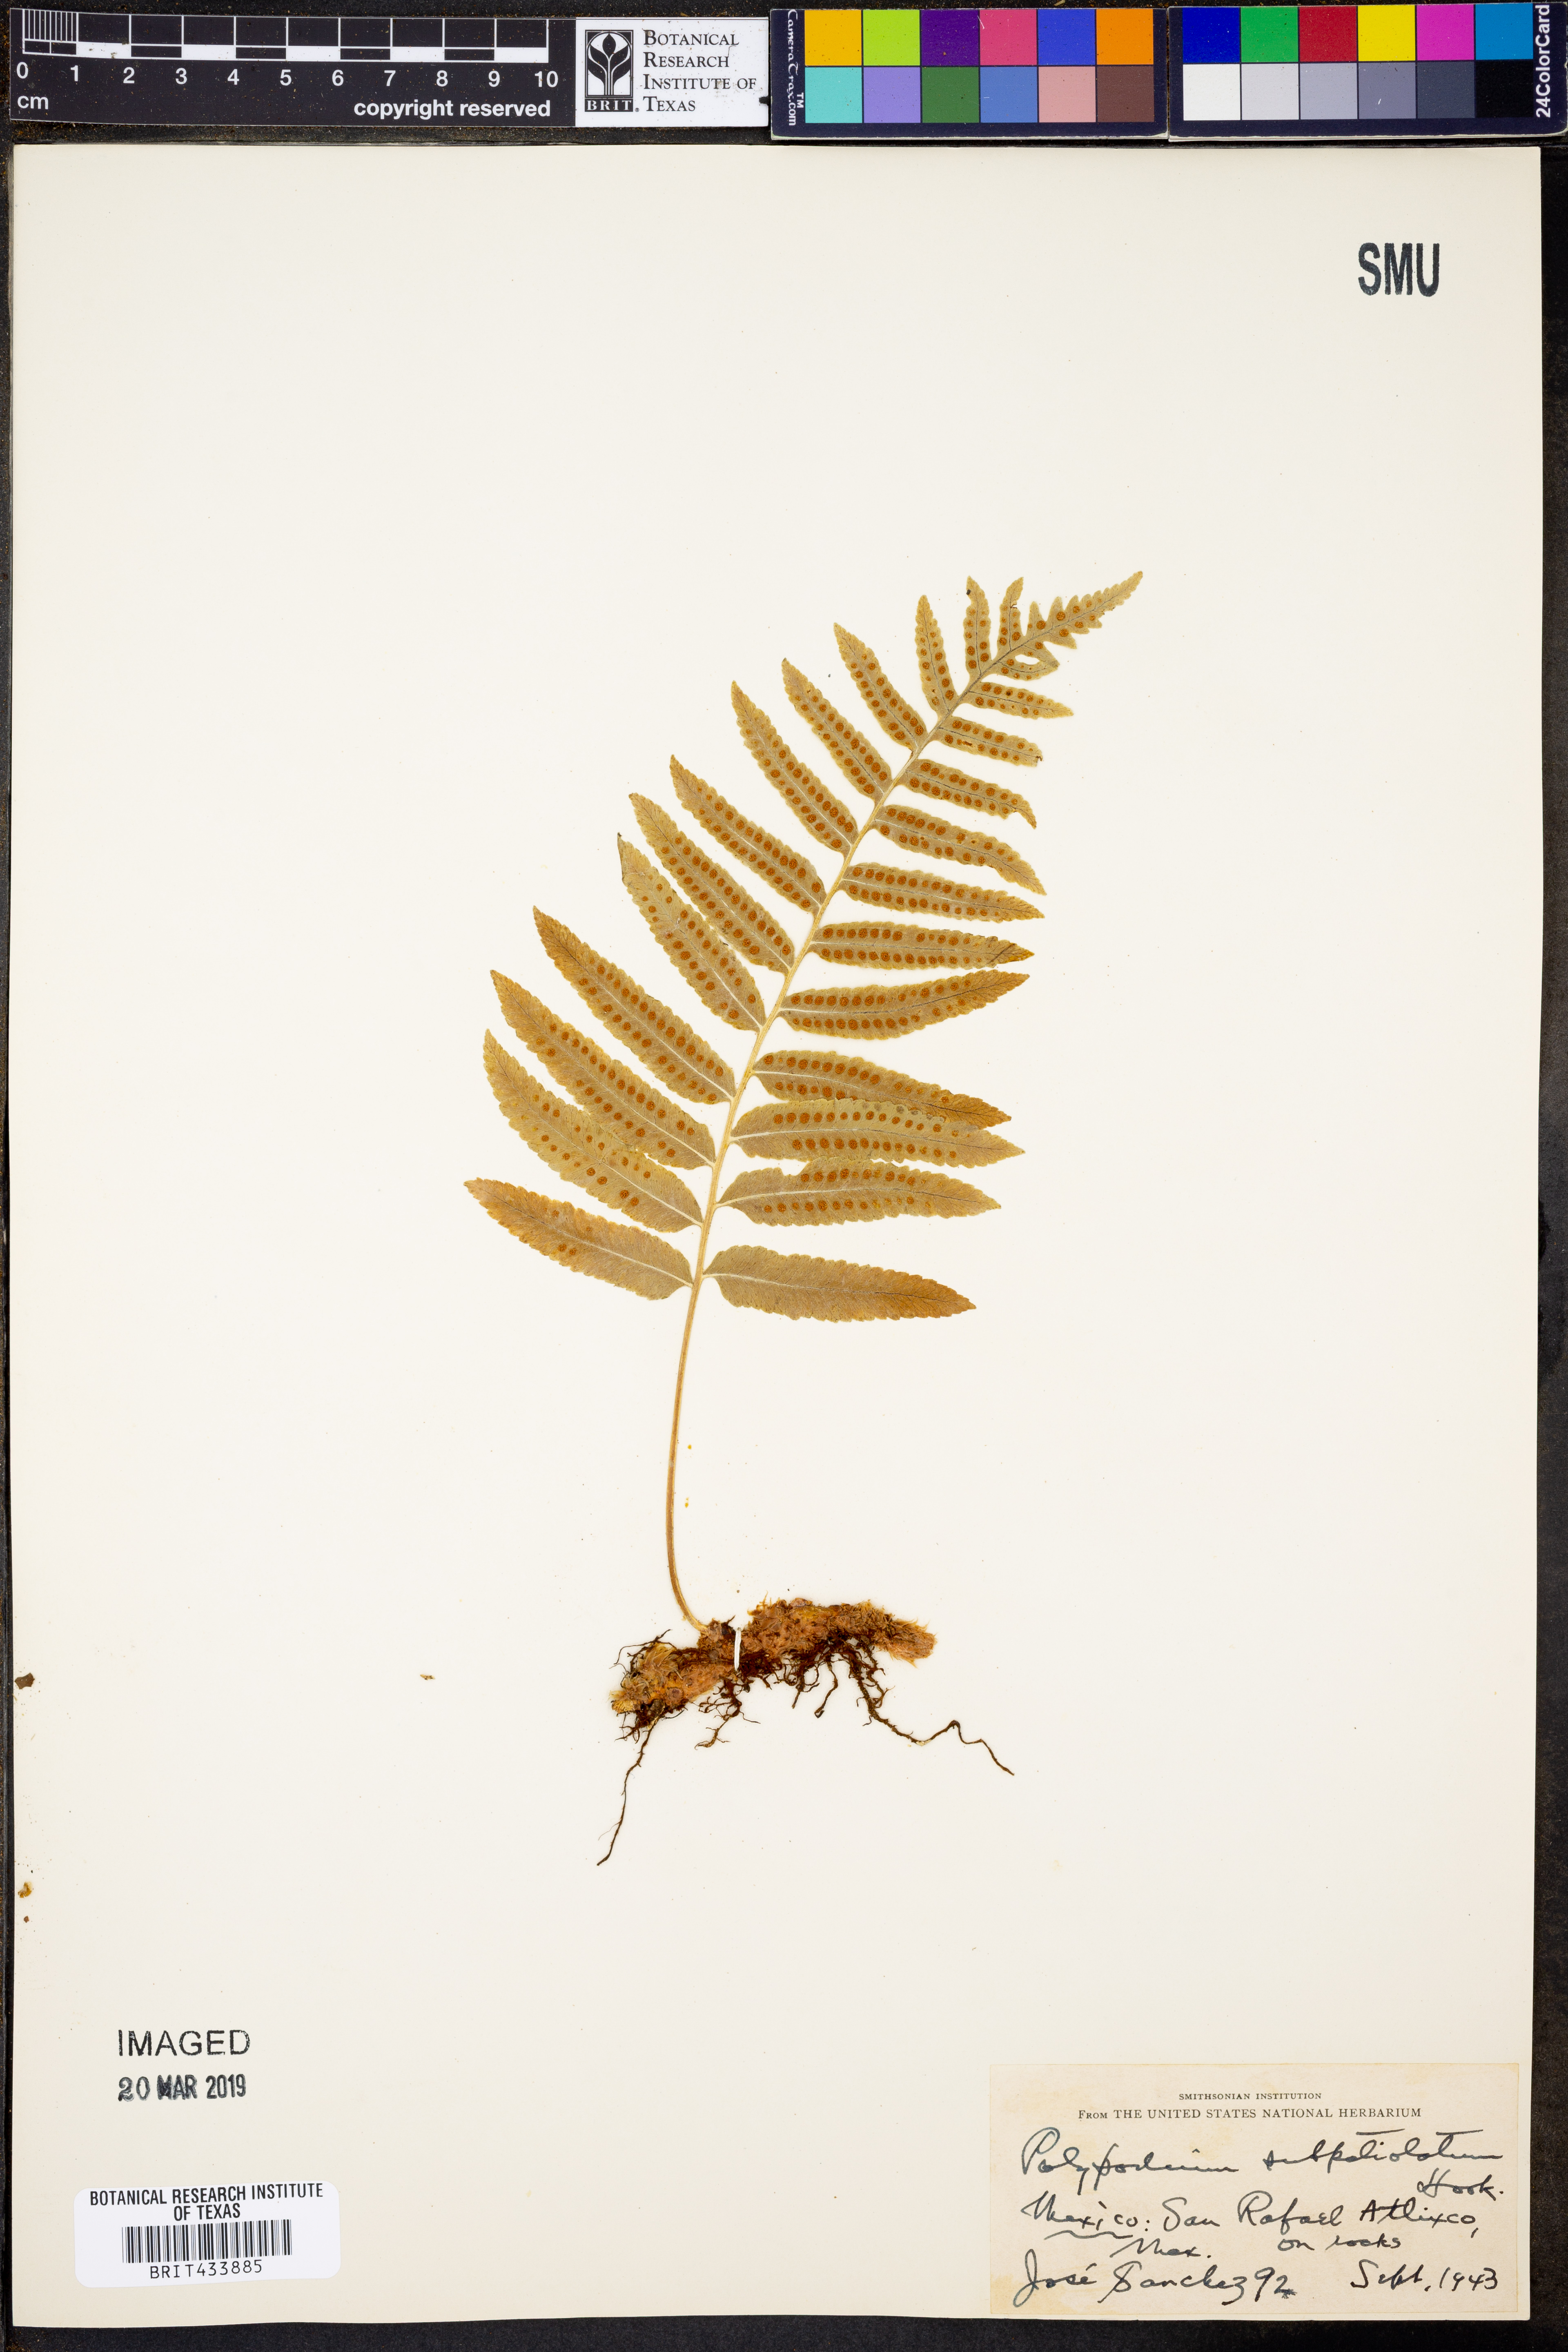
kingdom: Plantae
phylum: Tracheophyta
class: Polypodiopsida
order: Polypodiales
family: Polypodiaceae
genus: Polypodium
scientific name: Polypodium subpetiolatum
